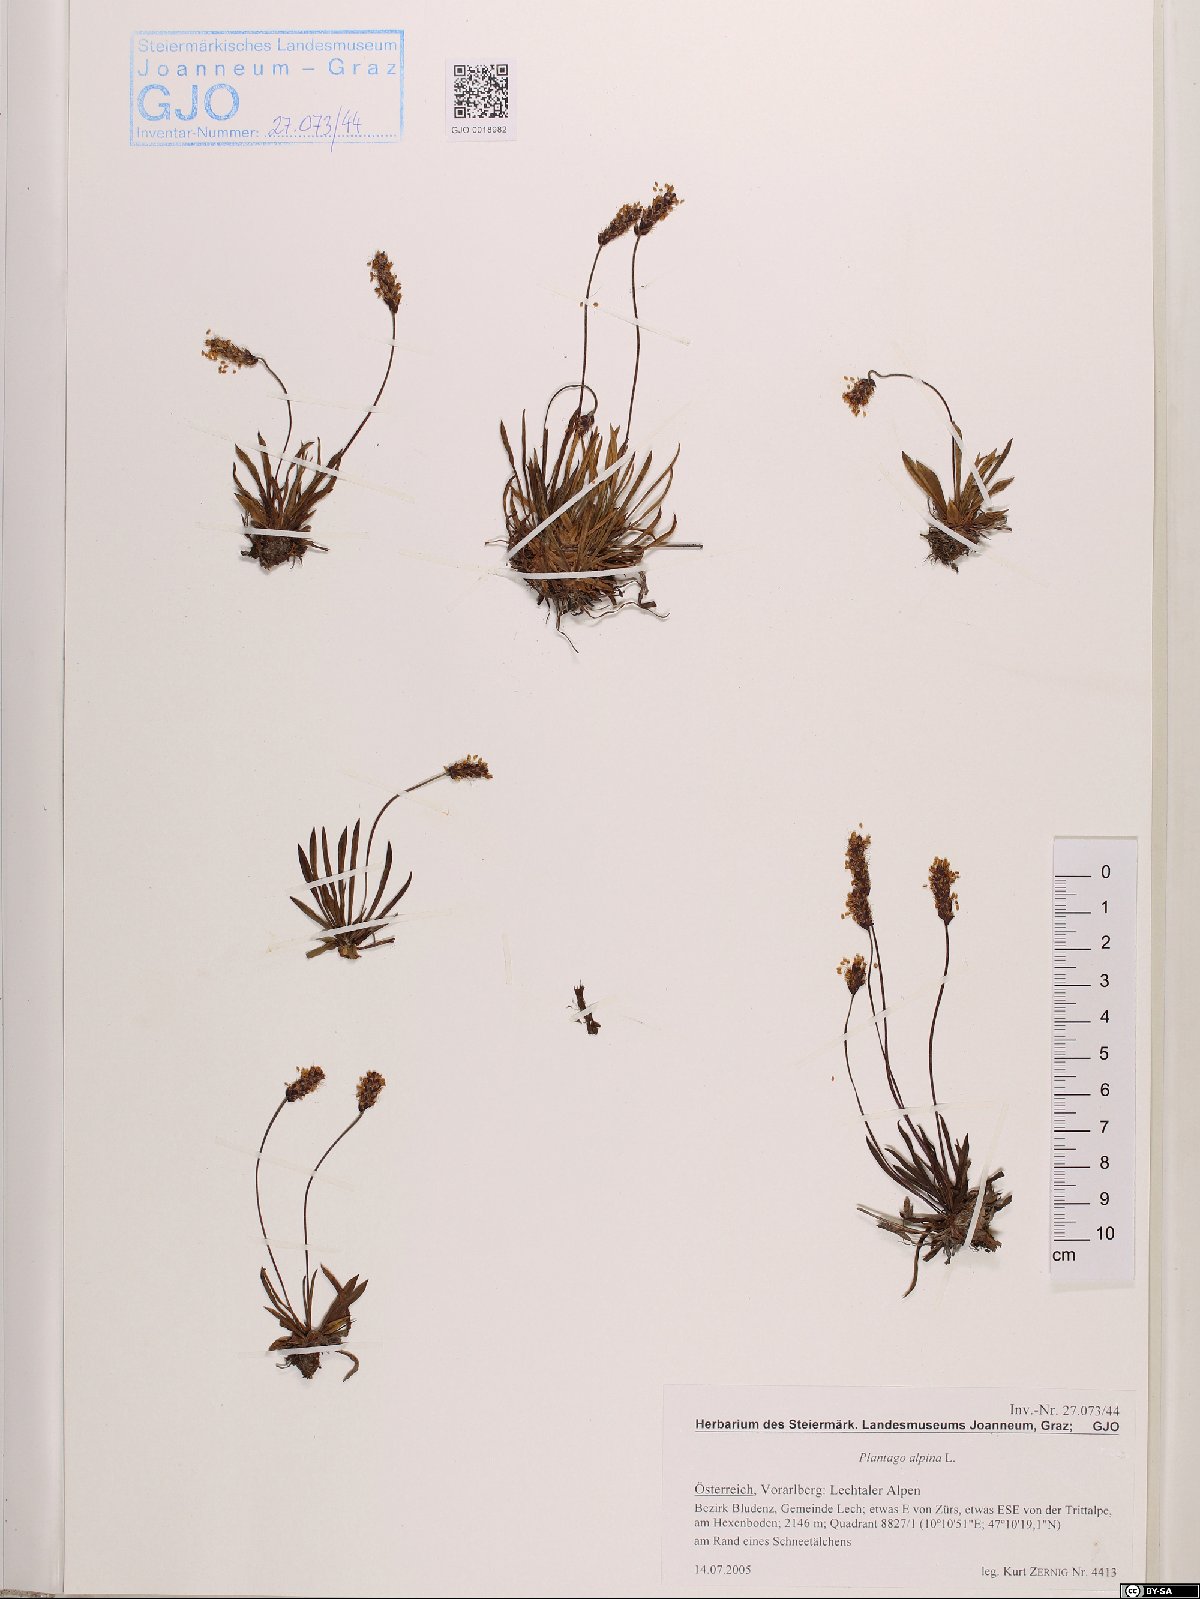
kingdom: Plantae
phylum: Tracheophyta
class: Magnoliopsida
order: Lamiales
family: Plantaginaceae
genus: Plantago
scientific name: Plantago alpina
